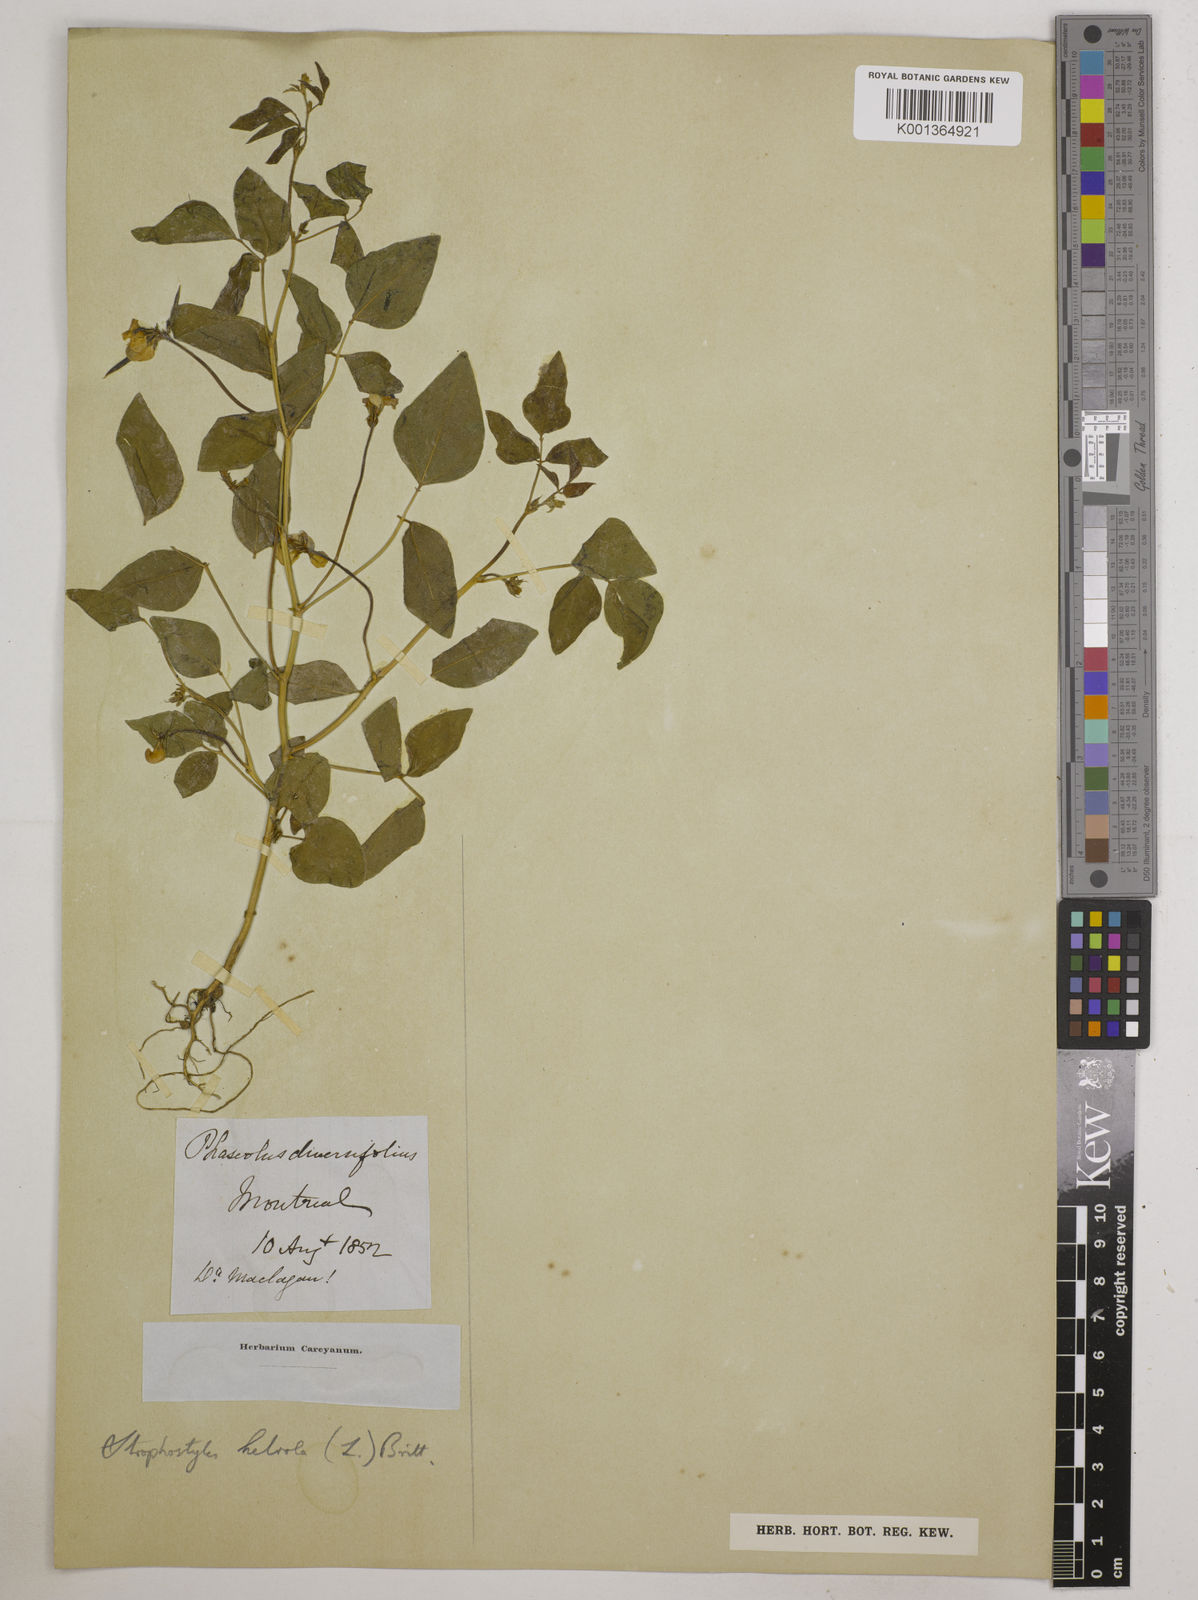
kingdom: Plantae
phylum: Tracheophyta
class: Magnoliopsida
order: Fabales
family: Fabaceae
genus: Strophostyles
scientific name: Strophostyles
